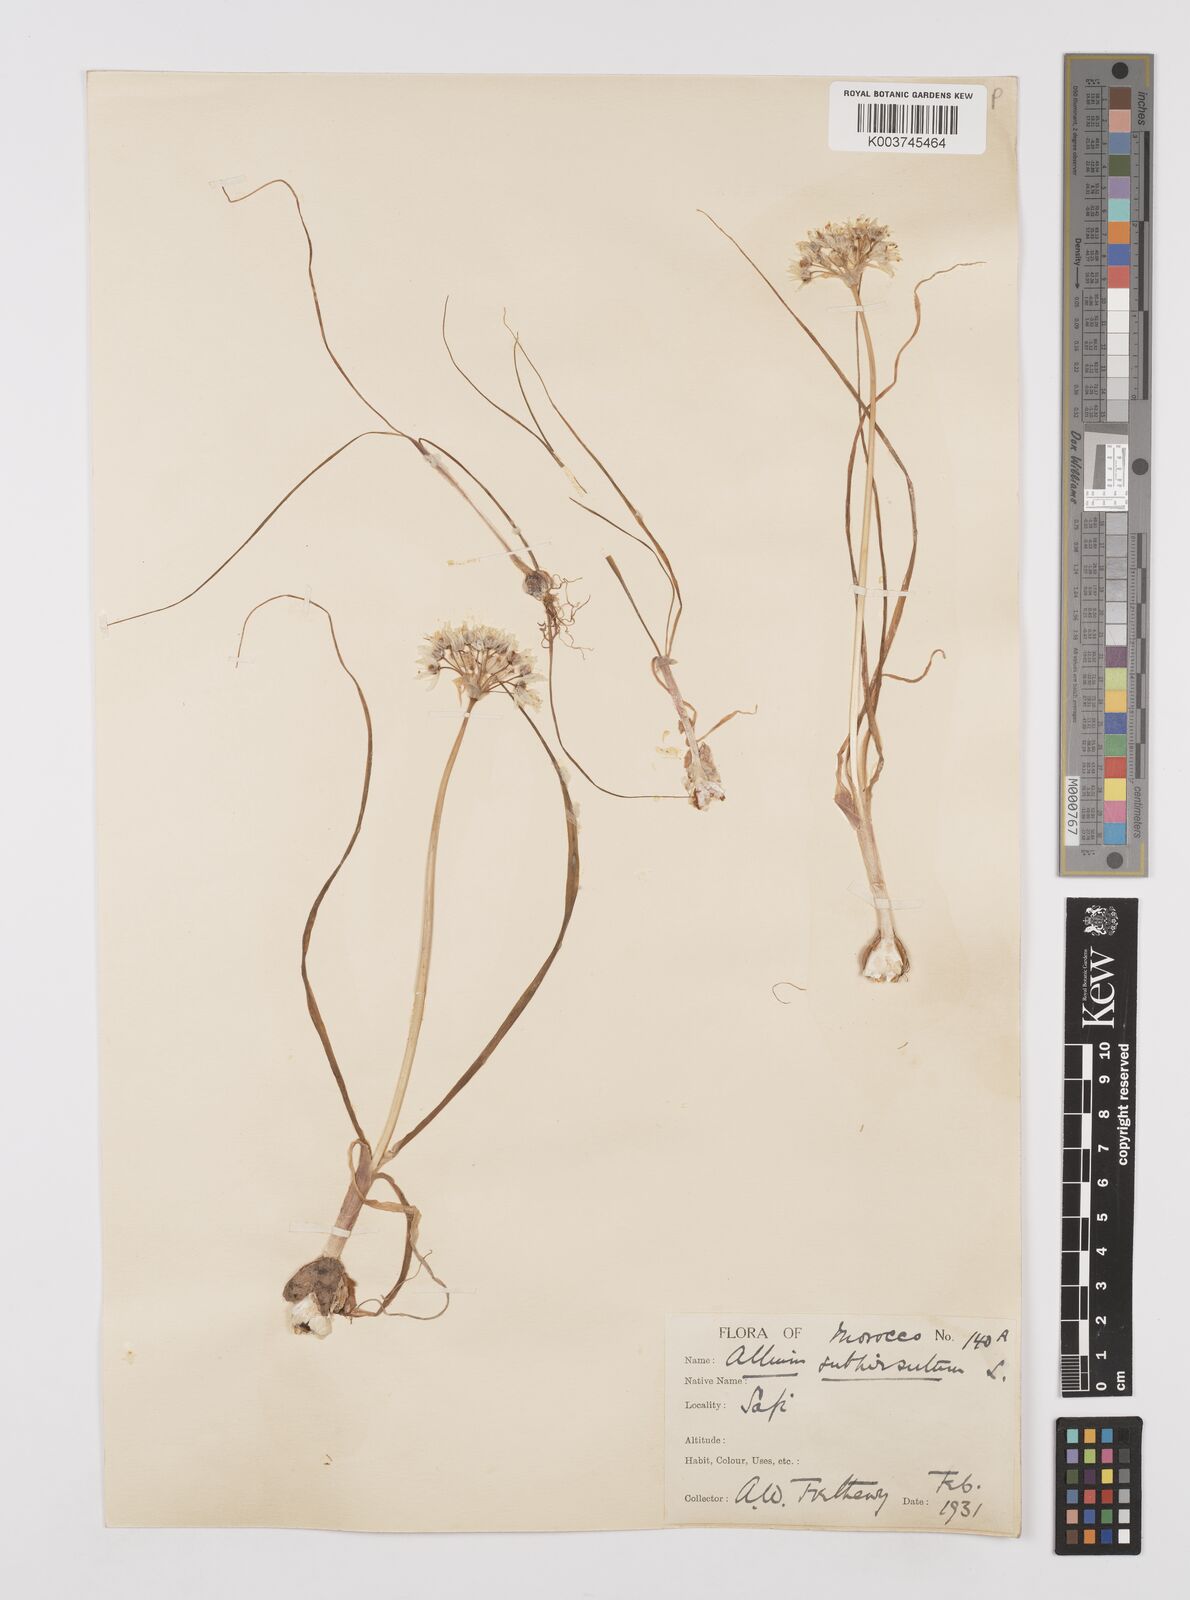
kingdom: Plantae
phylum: Tracheophyta
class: Liliopsida
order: Asparagales
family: Amaryllidaceae
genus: Allium
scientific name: Allium subhirsutum
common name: Hairy garlic
